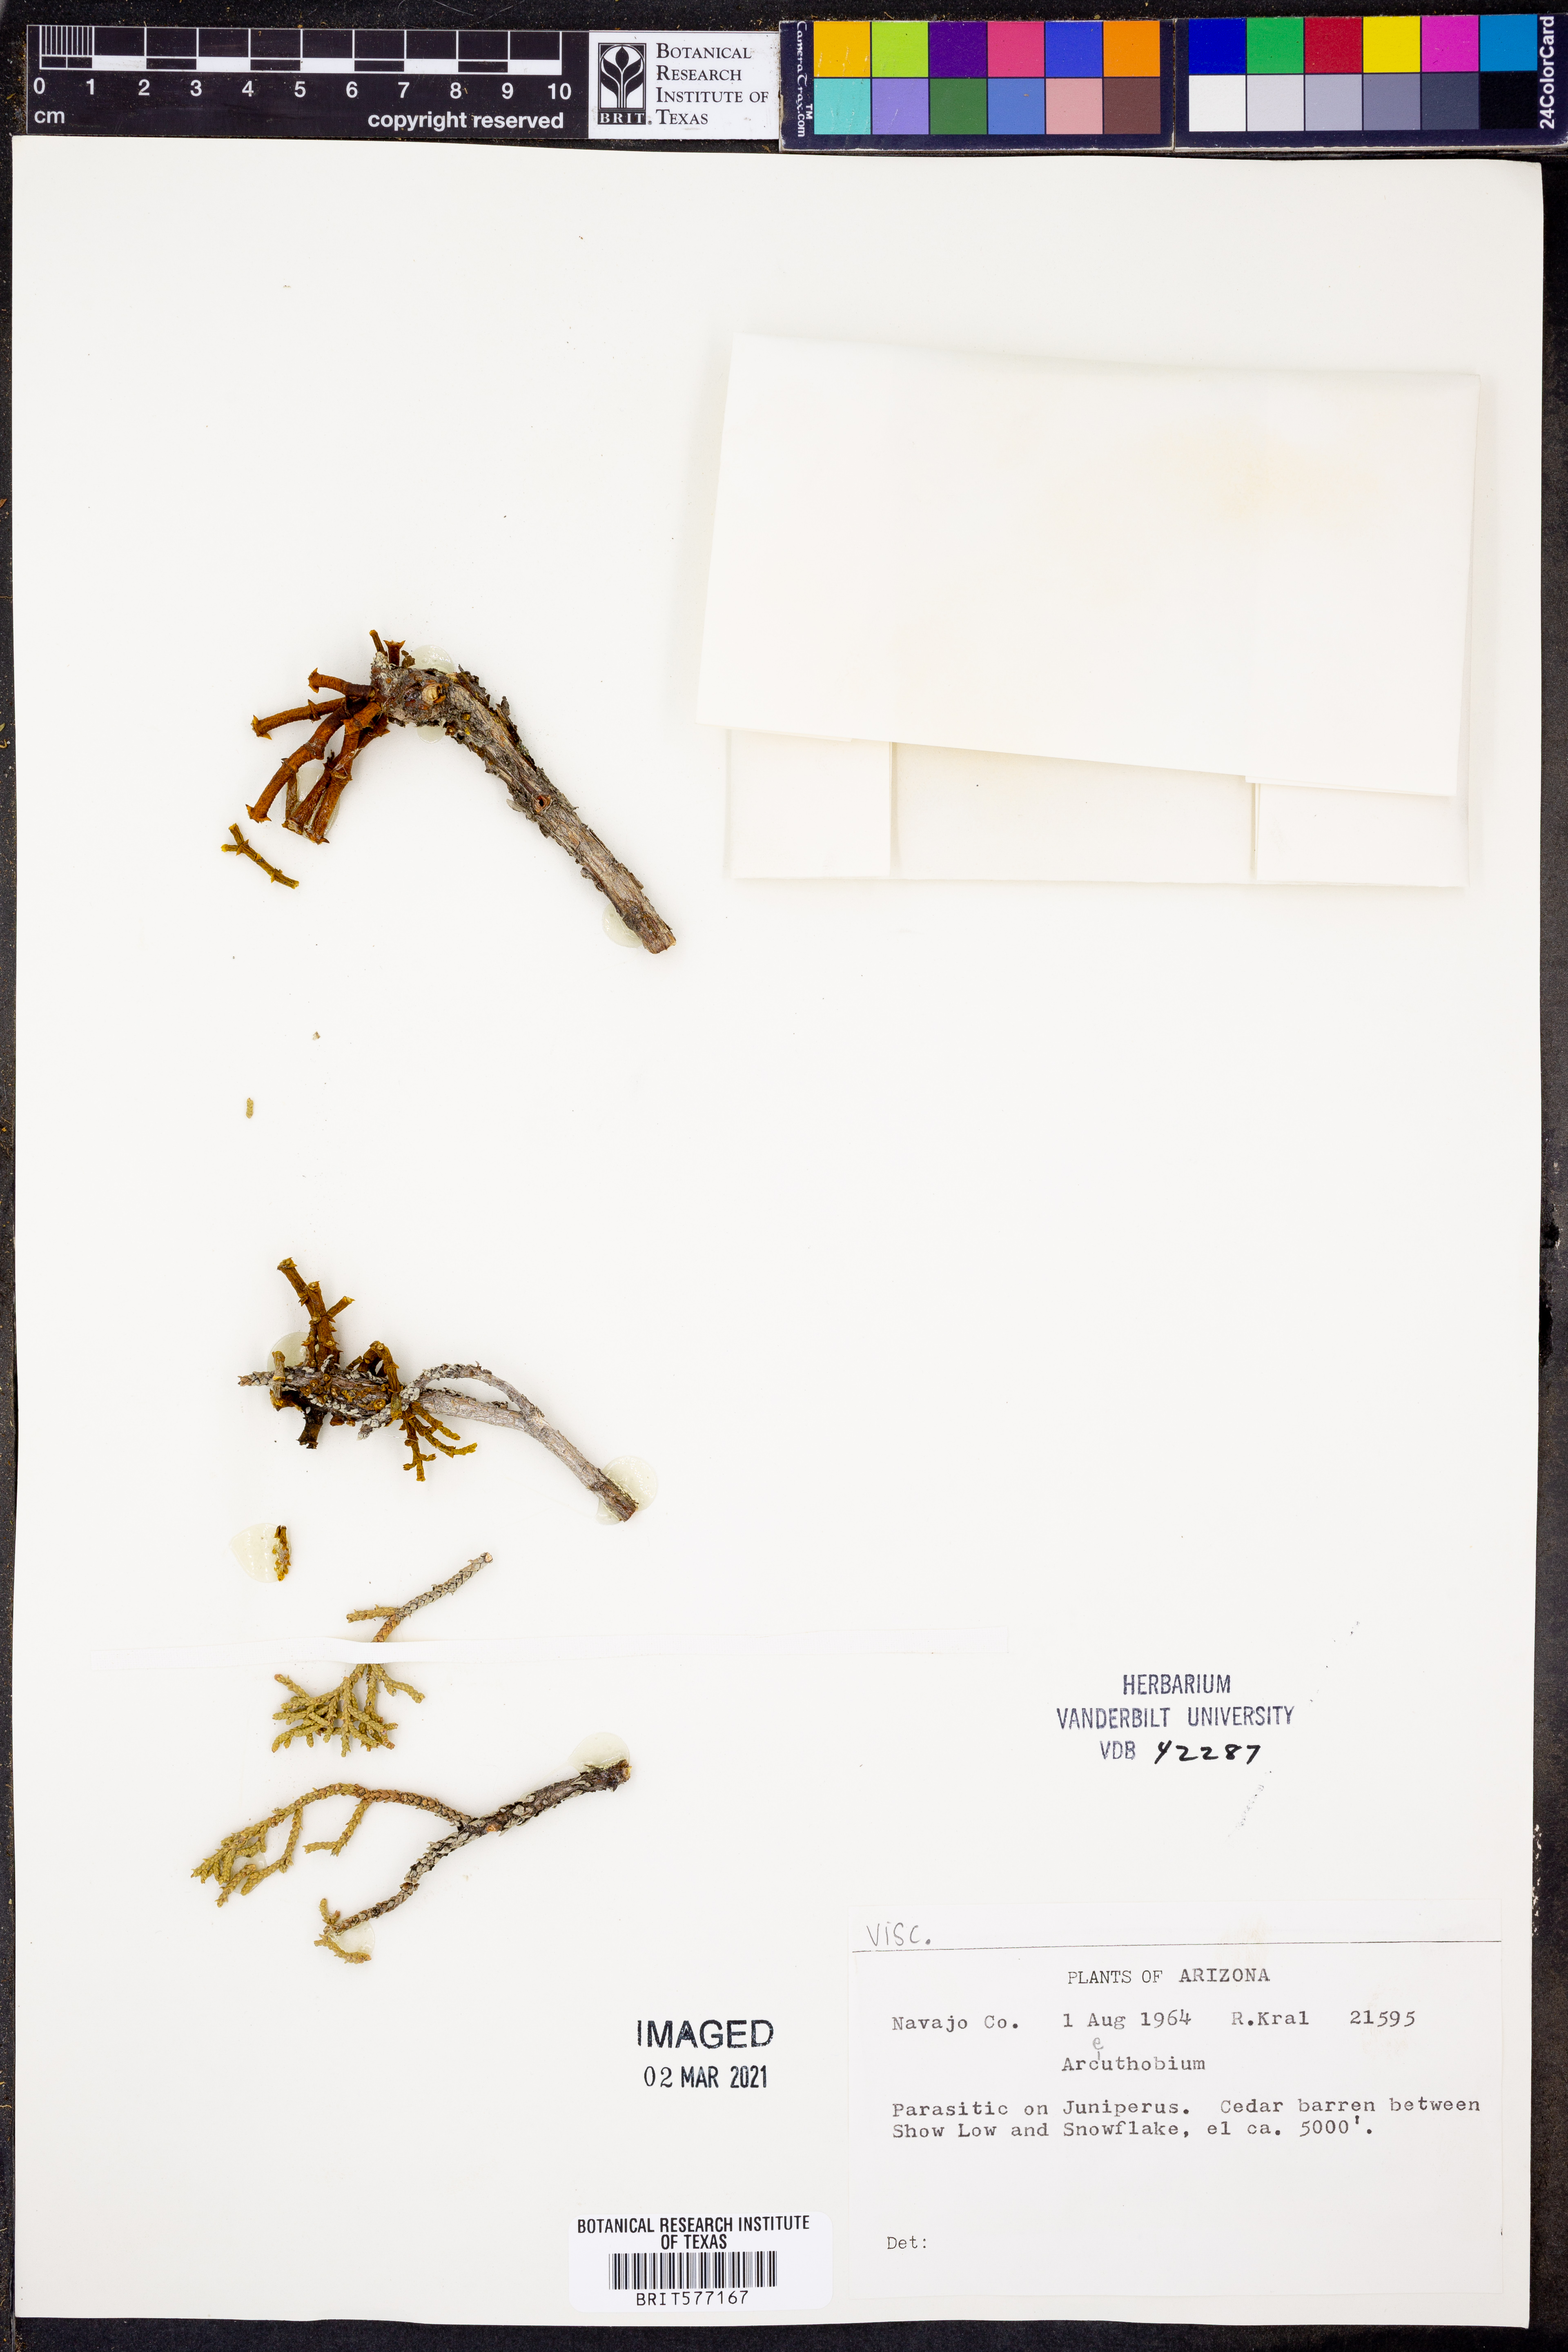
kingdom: Plantae
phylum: Tracheophyta
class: Magnoliopsida
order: Santalales
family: Viscaceae
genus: Arceuthobium
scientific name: Arceuthobium
